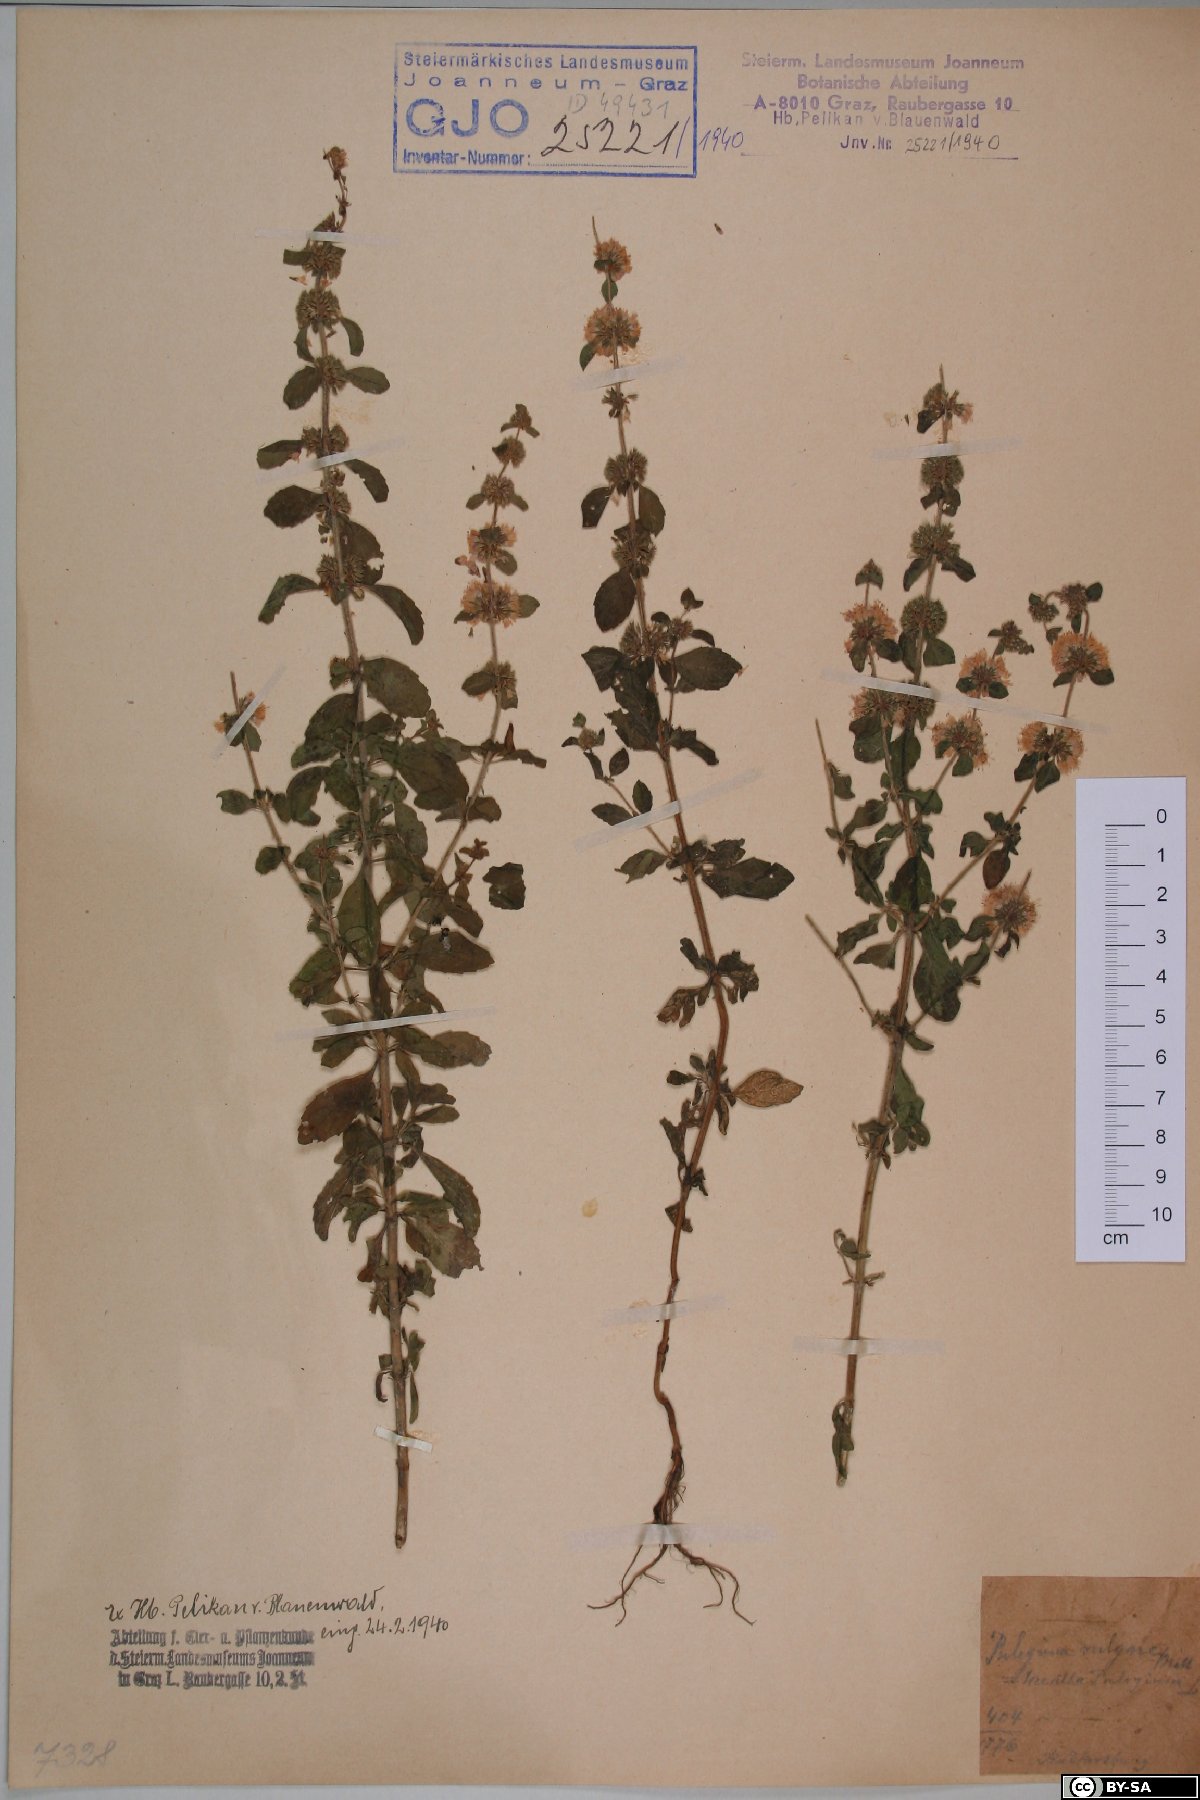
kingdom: Plantae
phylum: Tracheophyta
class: Magnoliopsida
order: Lamiales
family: Lamiaceae
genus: Mentha
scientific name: Mentha pulegium
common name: Pennyroyal
